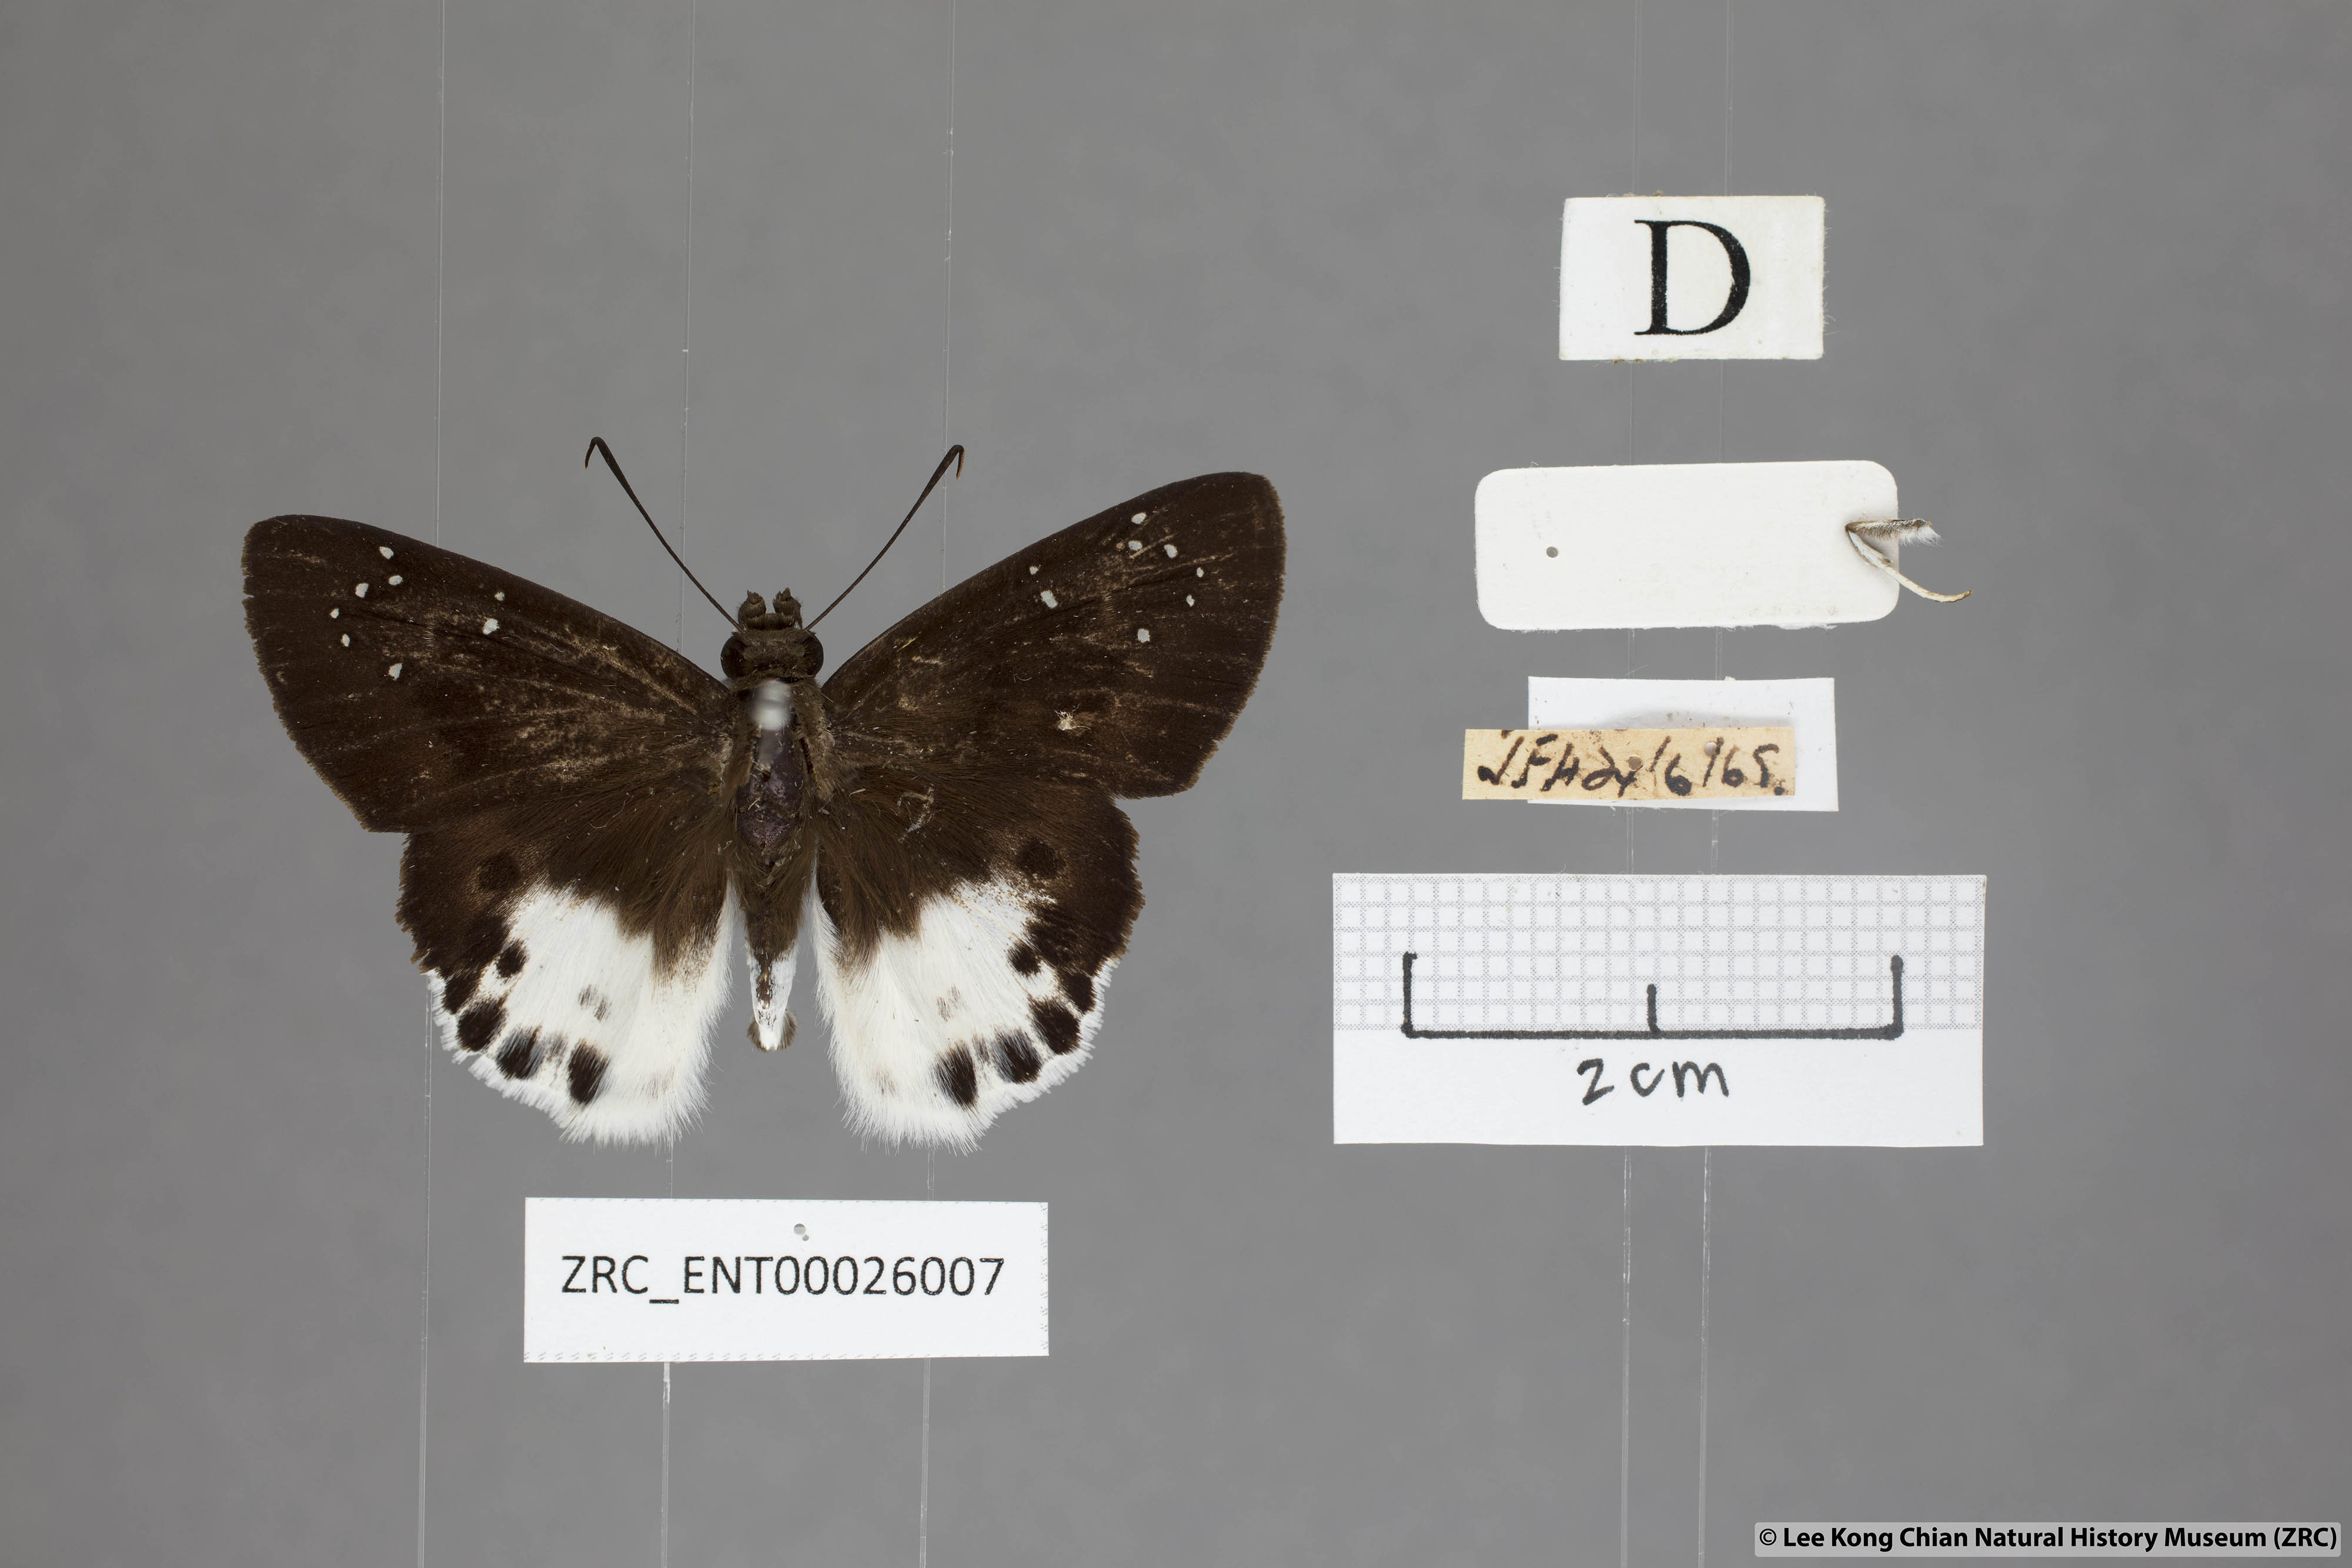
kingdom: Animalia
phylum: Arthropoda
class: Insecta
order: Lepidoptera
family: Hesperiidae
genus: Tagiades
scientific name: Tagiades menaka
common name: Dark-edged snow flat
